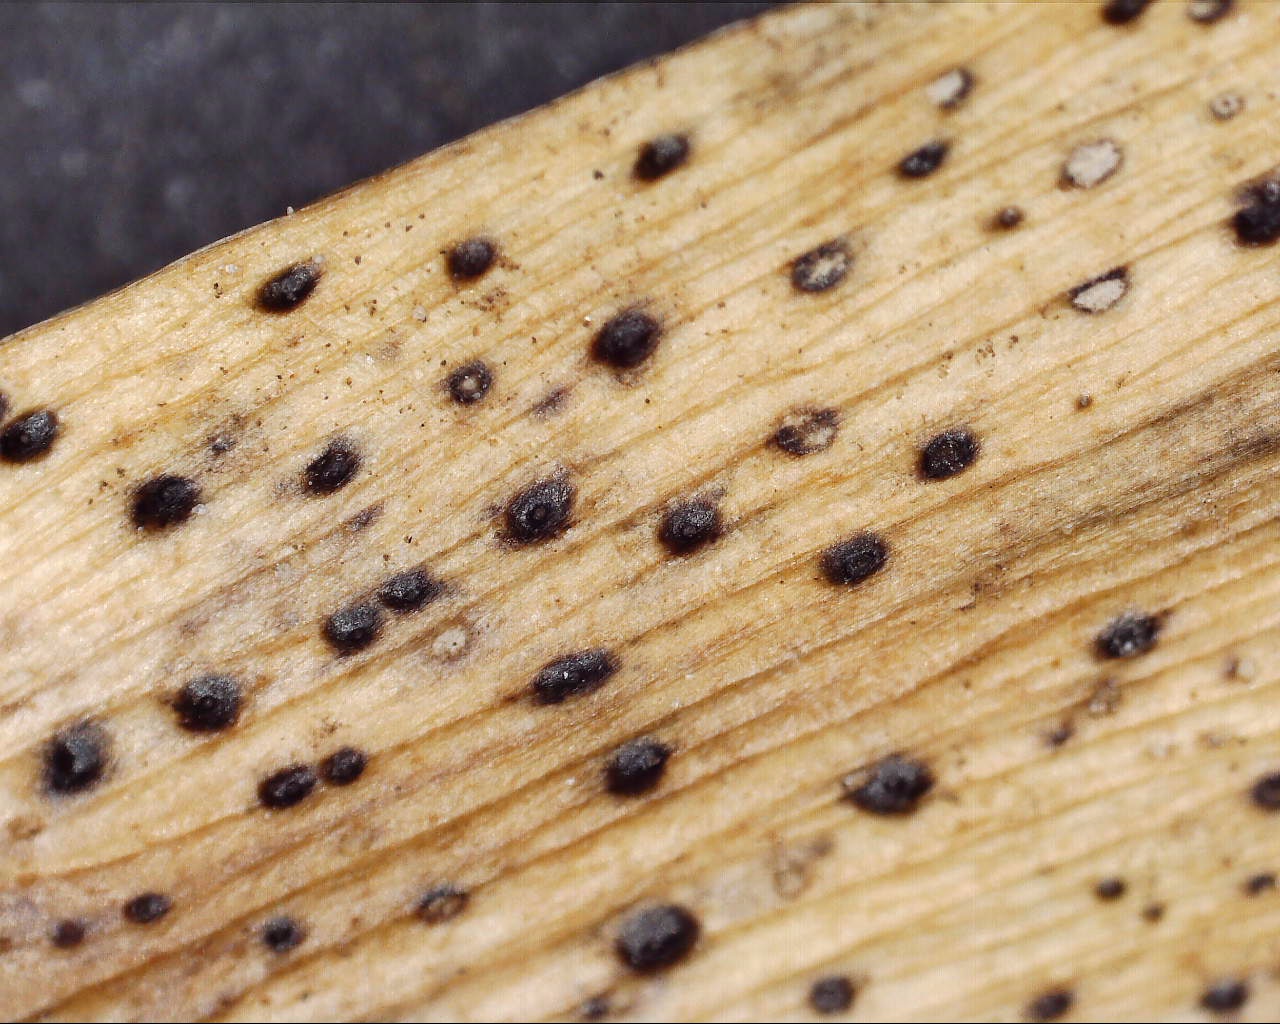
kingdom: Fungi
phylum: Ascomycota
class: Sordariomycetes
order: Diaporthales
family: Diaporthaceae
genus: Diaporthe
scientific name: Diaporthe samaricola
